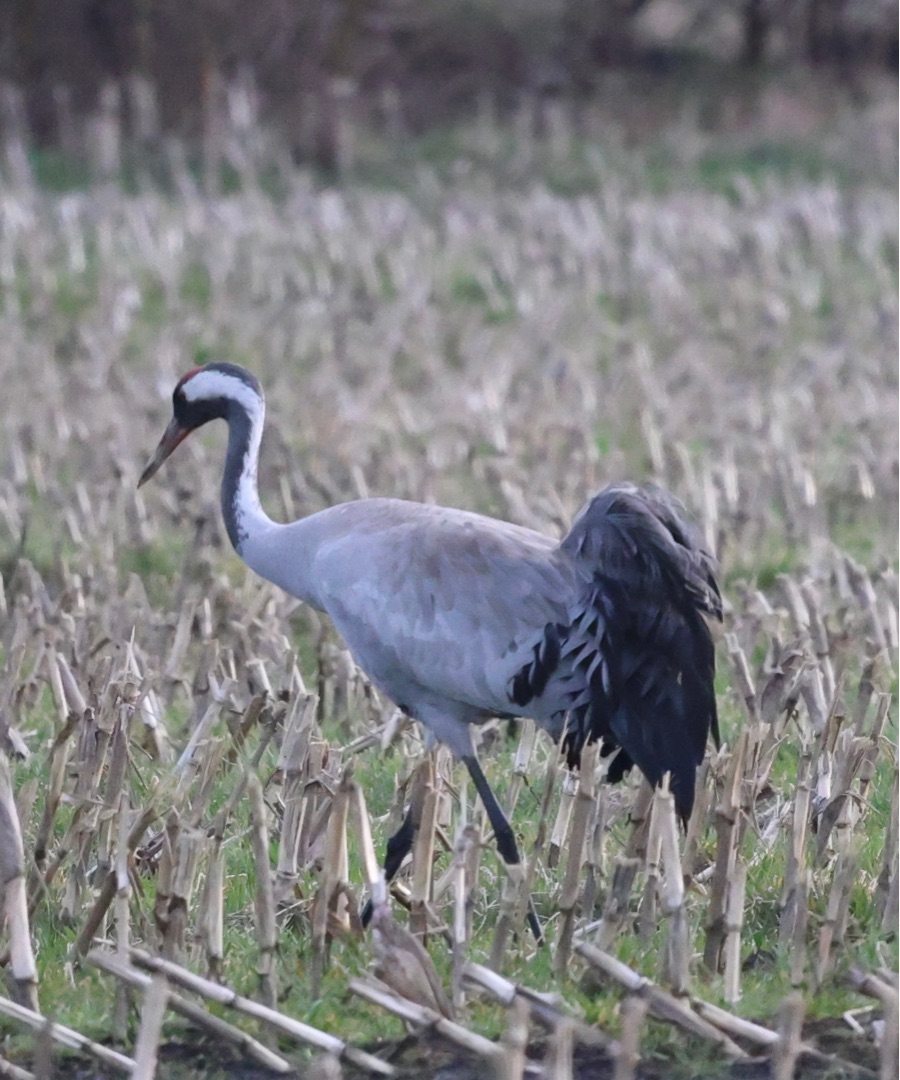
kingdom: Animalia
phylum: Chordata
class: Aves
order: Gruiformes
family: Gruidae
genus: Grus
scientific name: Grus grus
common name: Trane
